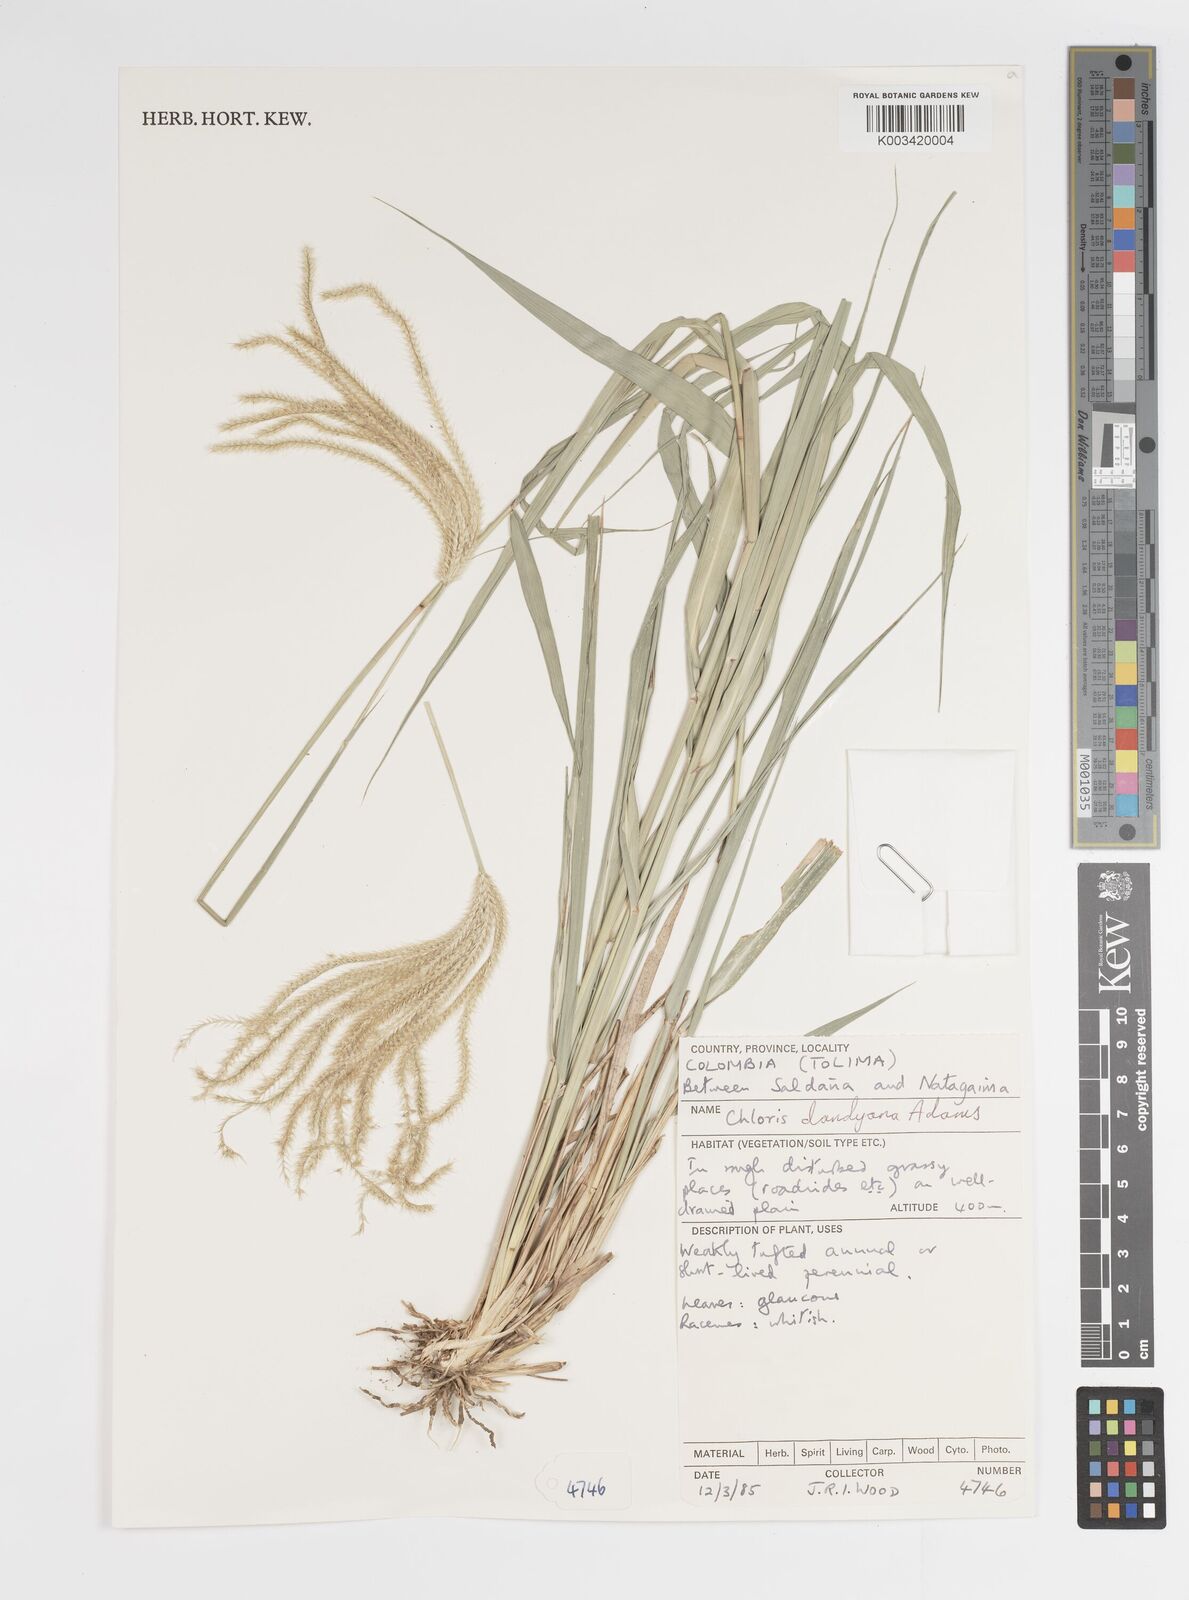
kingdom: Plantae
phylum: Tracheophyta
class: Liliopsida
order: Poales
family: Poaceae
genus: Stapfochloa
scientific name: Stapfochloa elata
